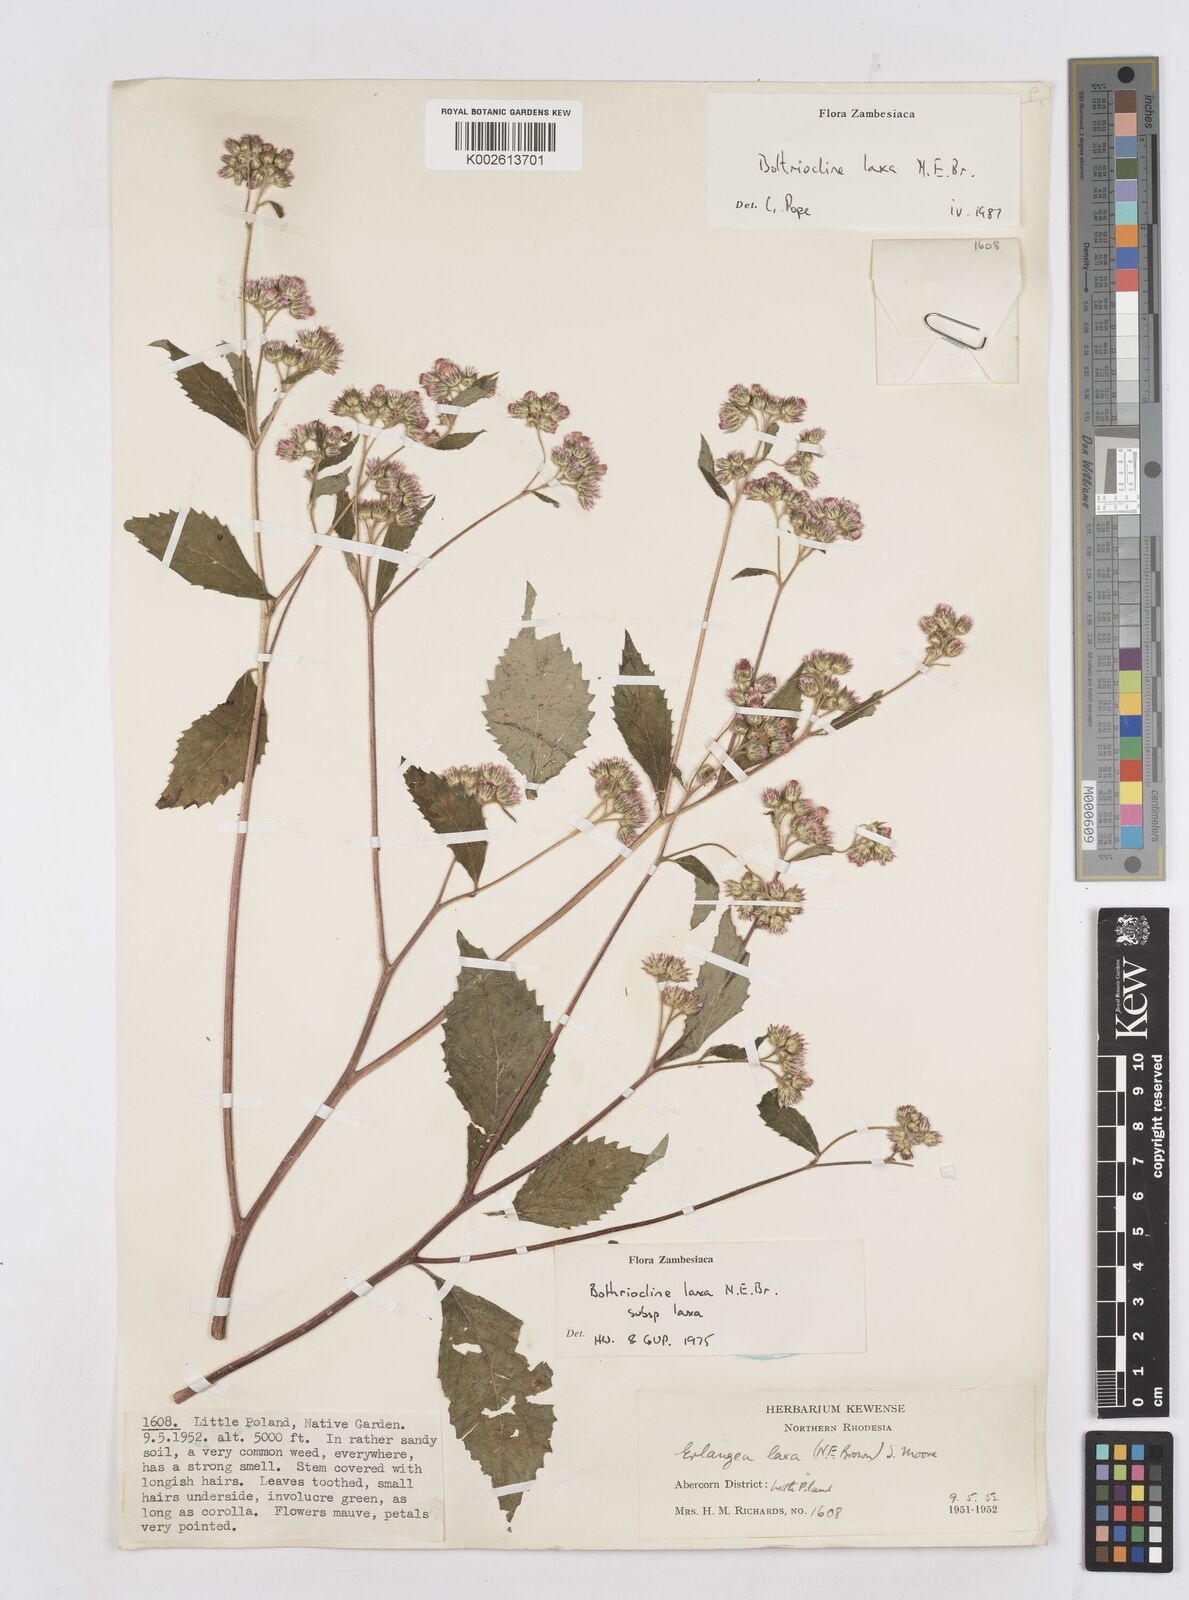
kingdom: Plantae
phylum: Tracheophyta
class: Magnoliopsida
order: Asterales
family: Asteraceae
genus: Bothriocline
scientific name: Bothriocline laxa
